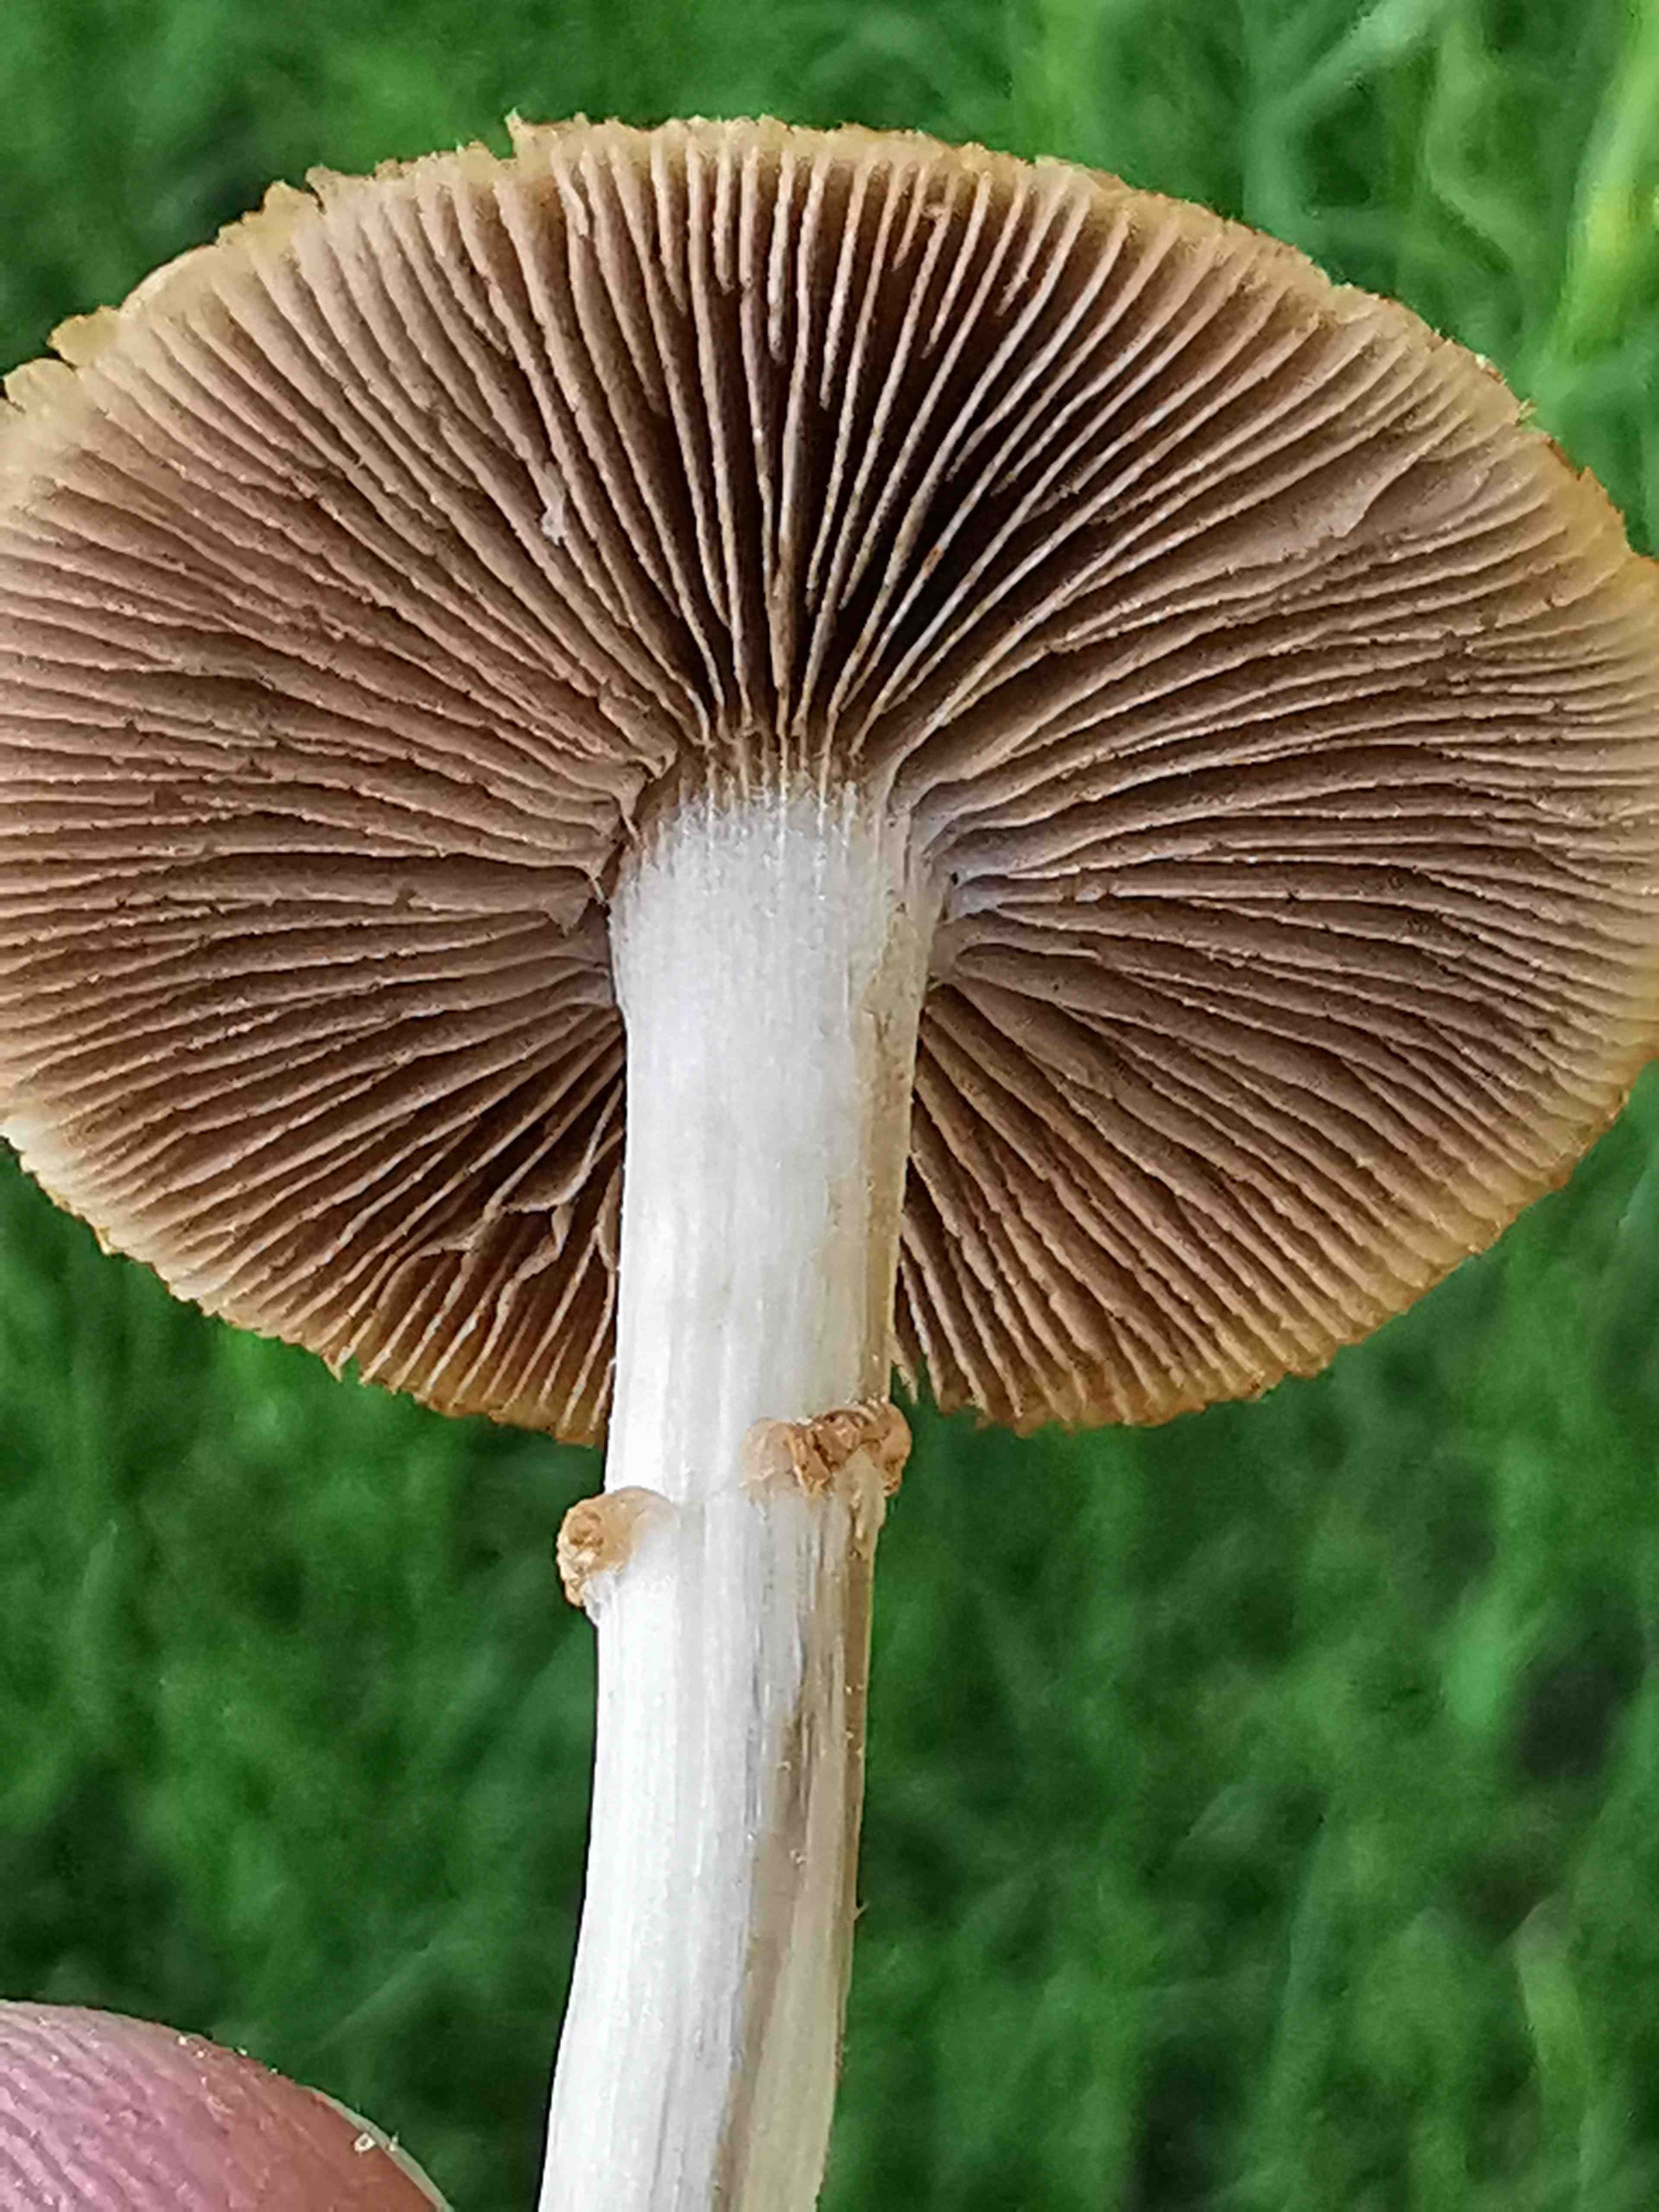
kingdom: Fungi
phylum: Basidiomycota
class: Agaricomycetes
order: Agaricales
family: Strophariaceae
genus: Agrocybe
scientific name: Agrocybe
